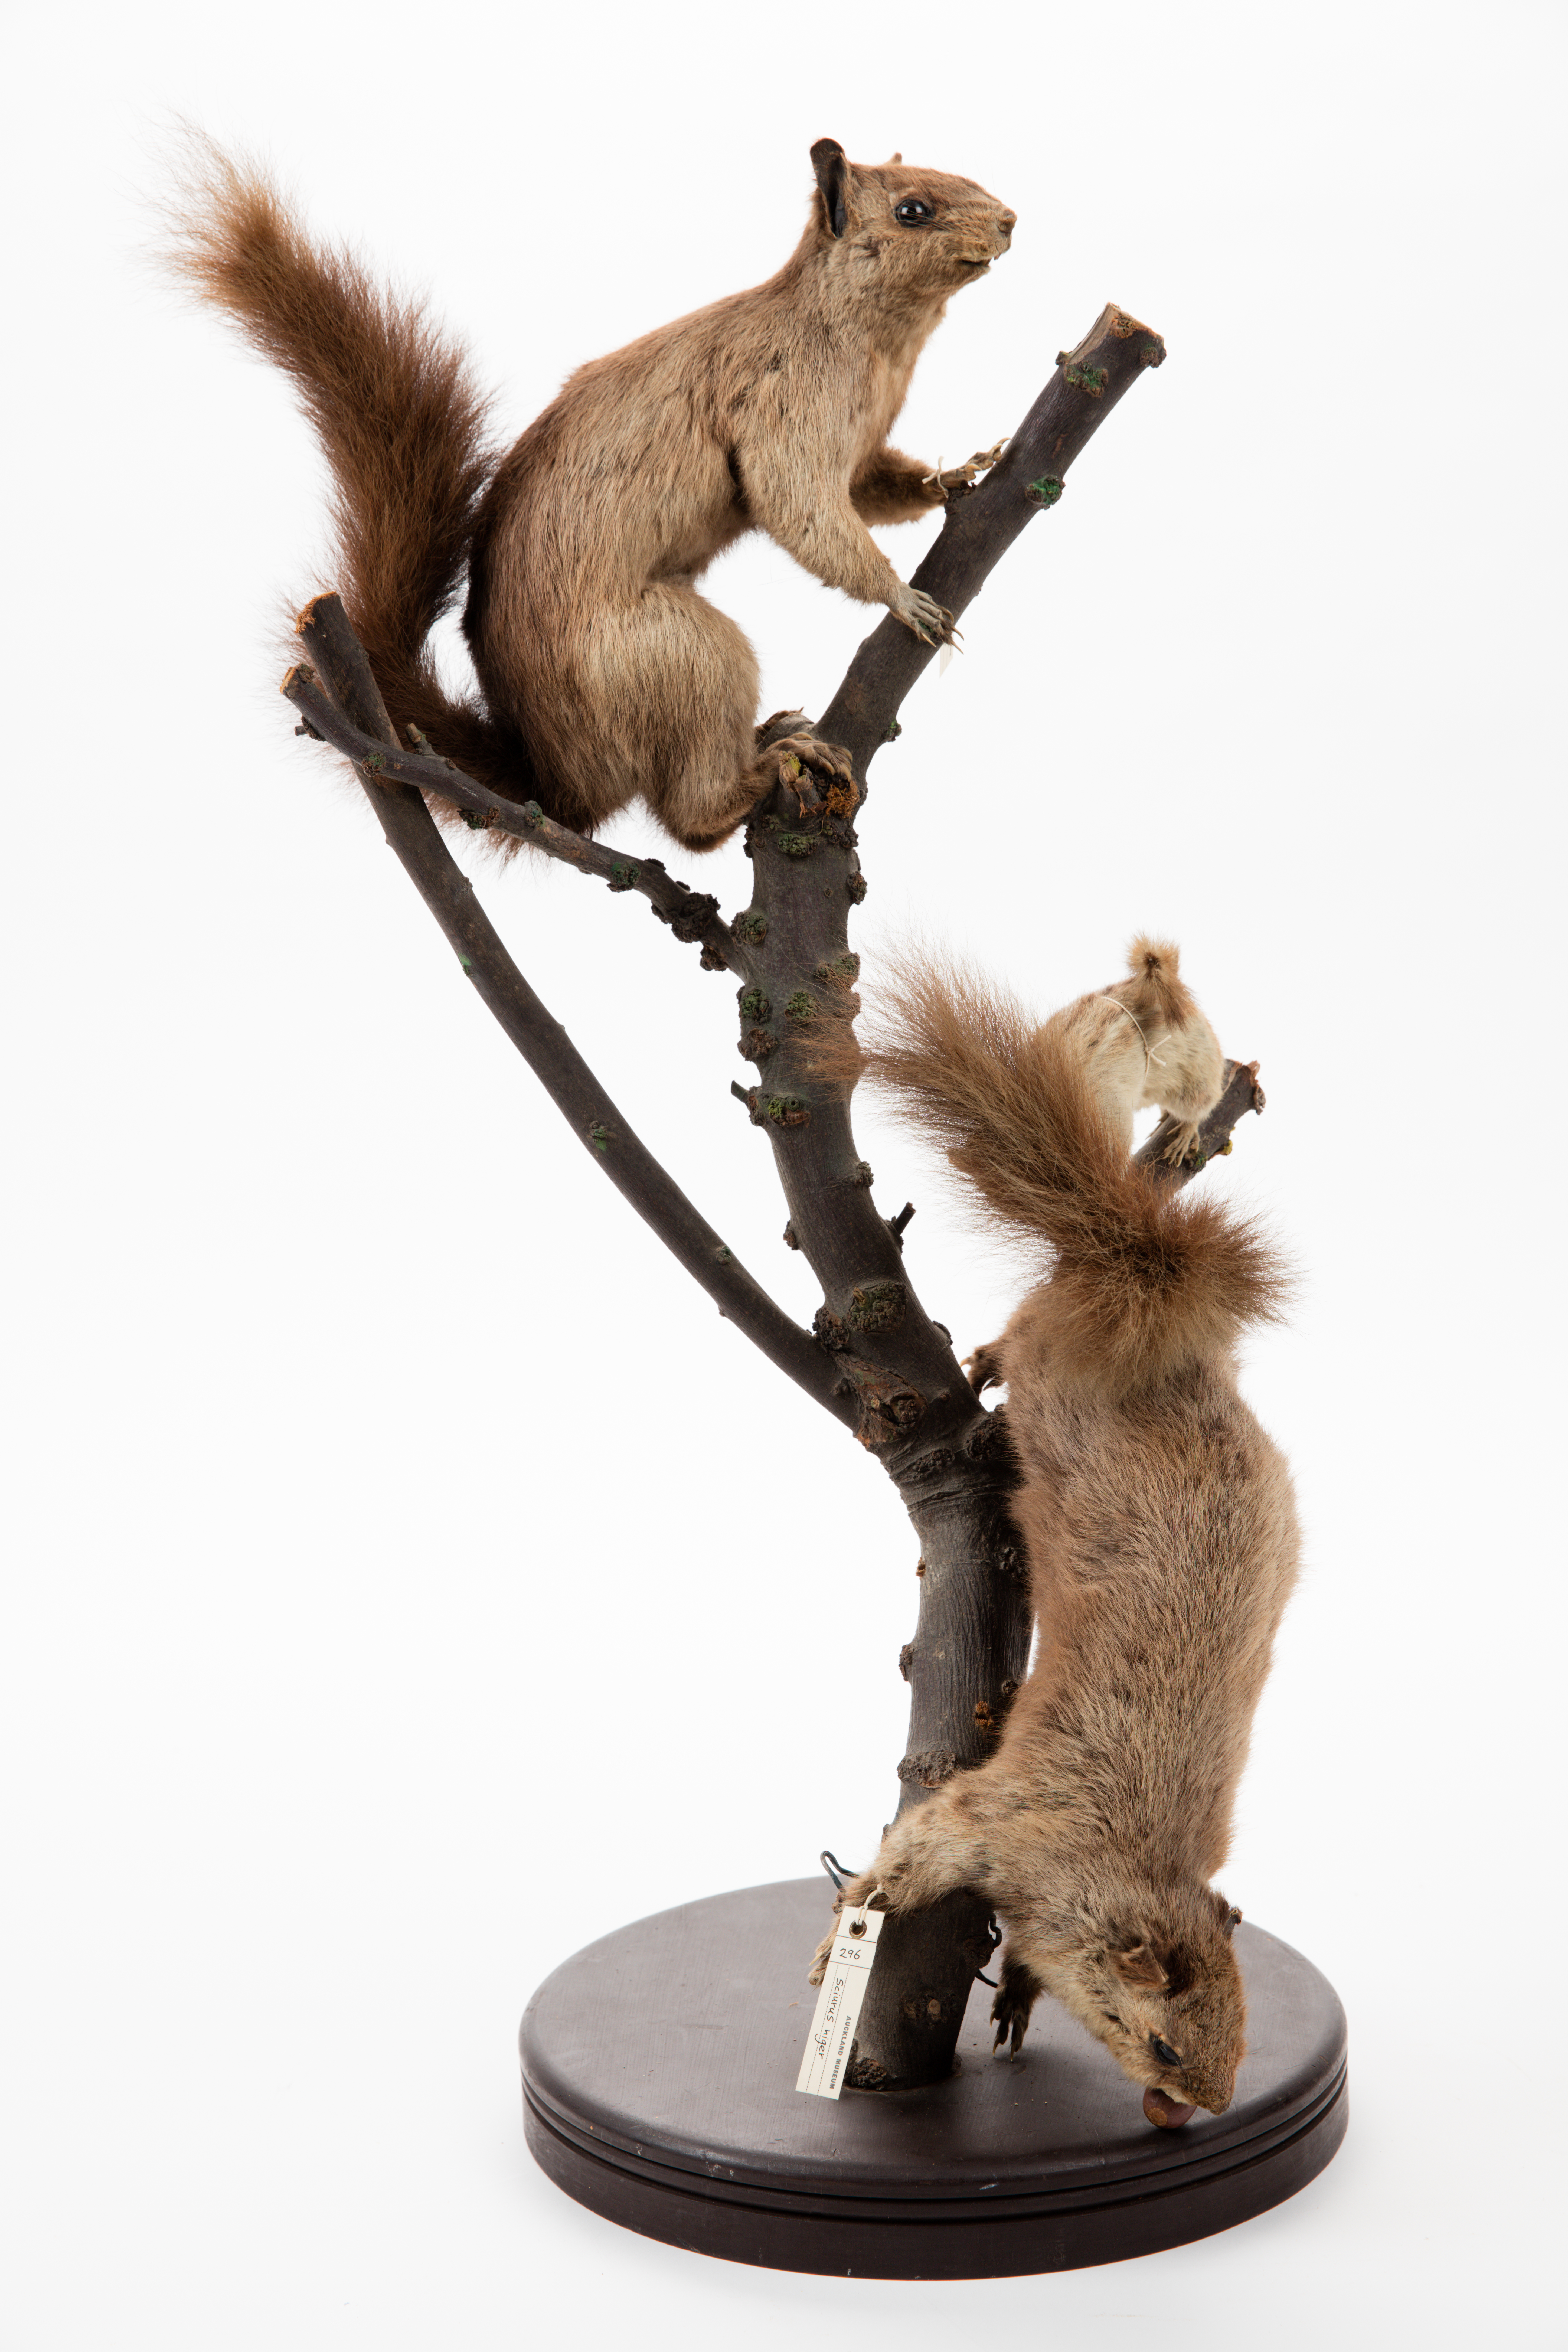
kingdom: Animalia
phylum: Chordata
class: Mammalia
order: Rodentia
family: Sciuridae
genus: Sciurus
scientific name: Sciurus niger
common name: Fox squirrel
